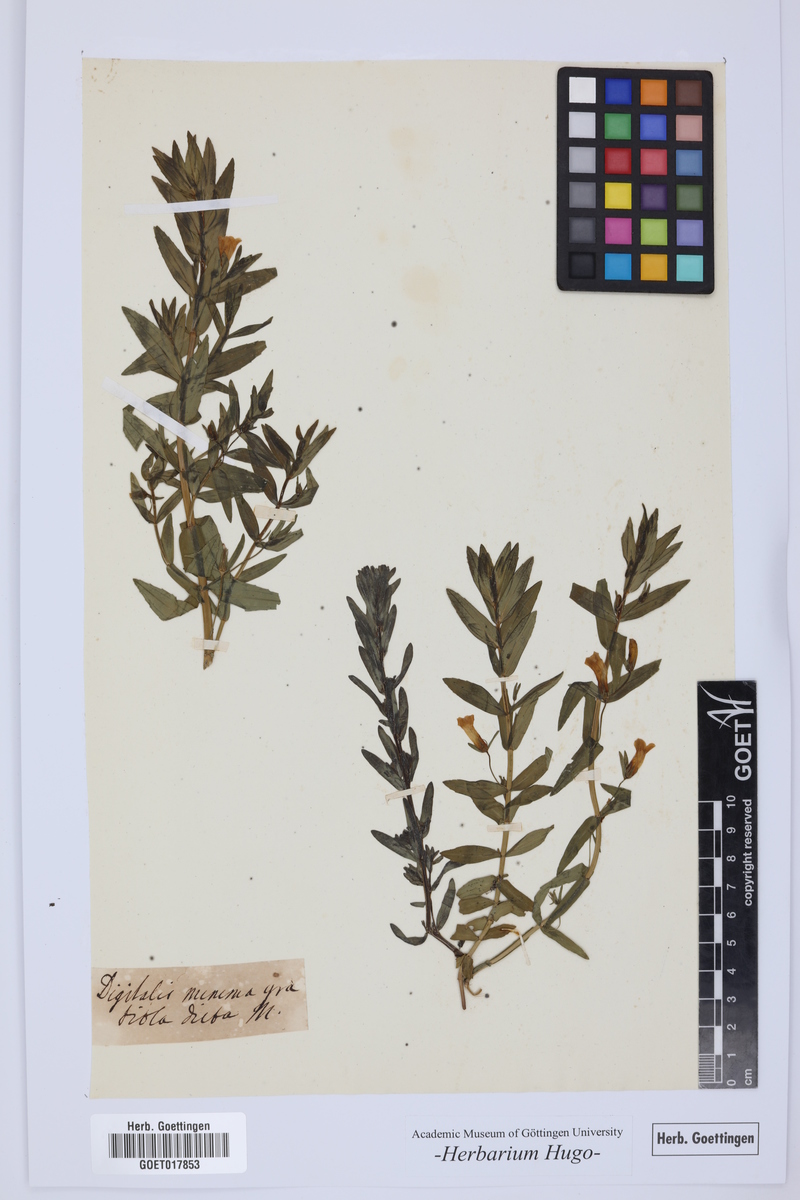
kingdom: Plantae
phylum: Tracheophyta
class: Magnoliopsida
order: Lamiales
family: Plantaginaceae
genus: Digitalis
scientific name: Digitalis
